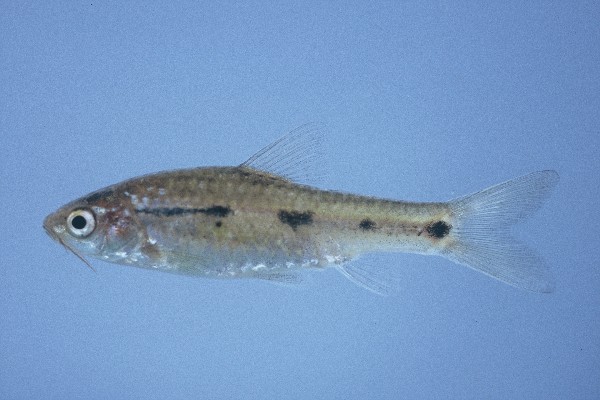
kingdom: Animalia
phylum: Chordata
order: Cypriniformes
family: Cyprinidae
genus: Enteromius
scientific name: Enteromius lineomaculatus
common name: Line-spotted barb
